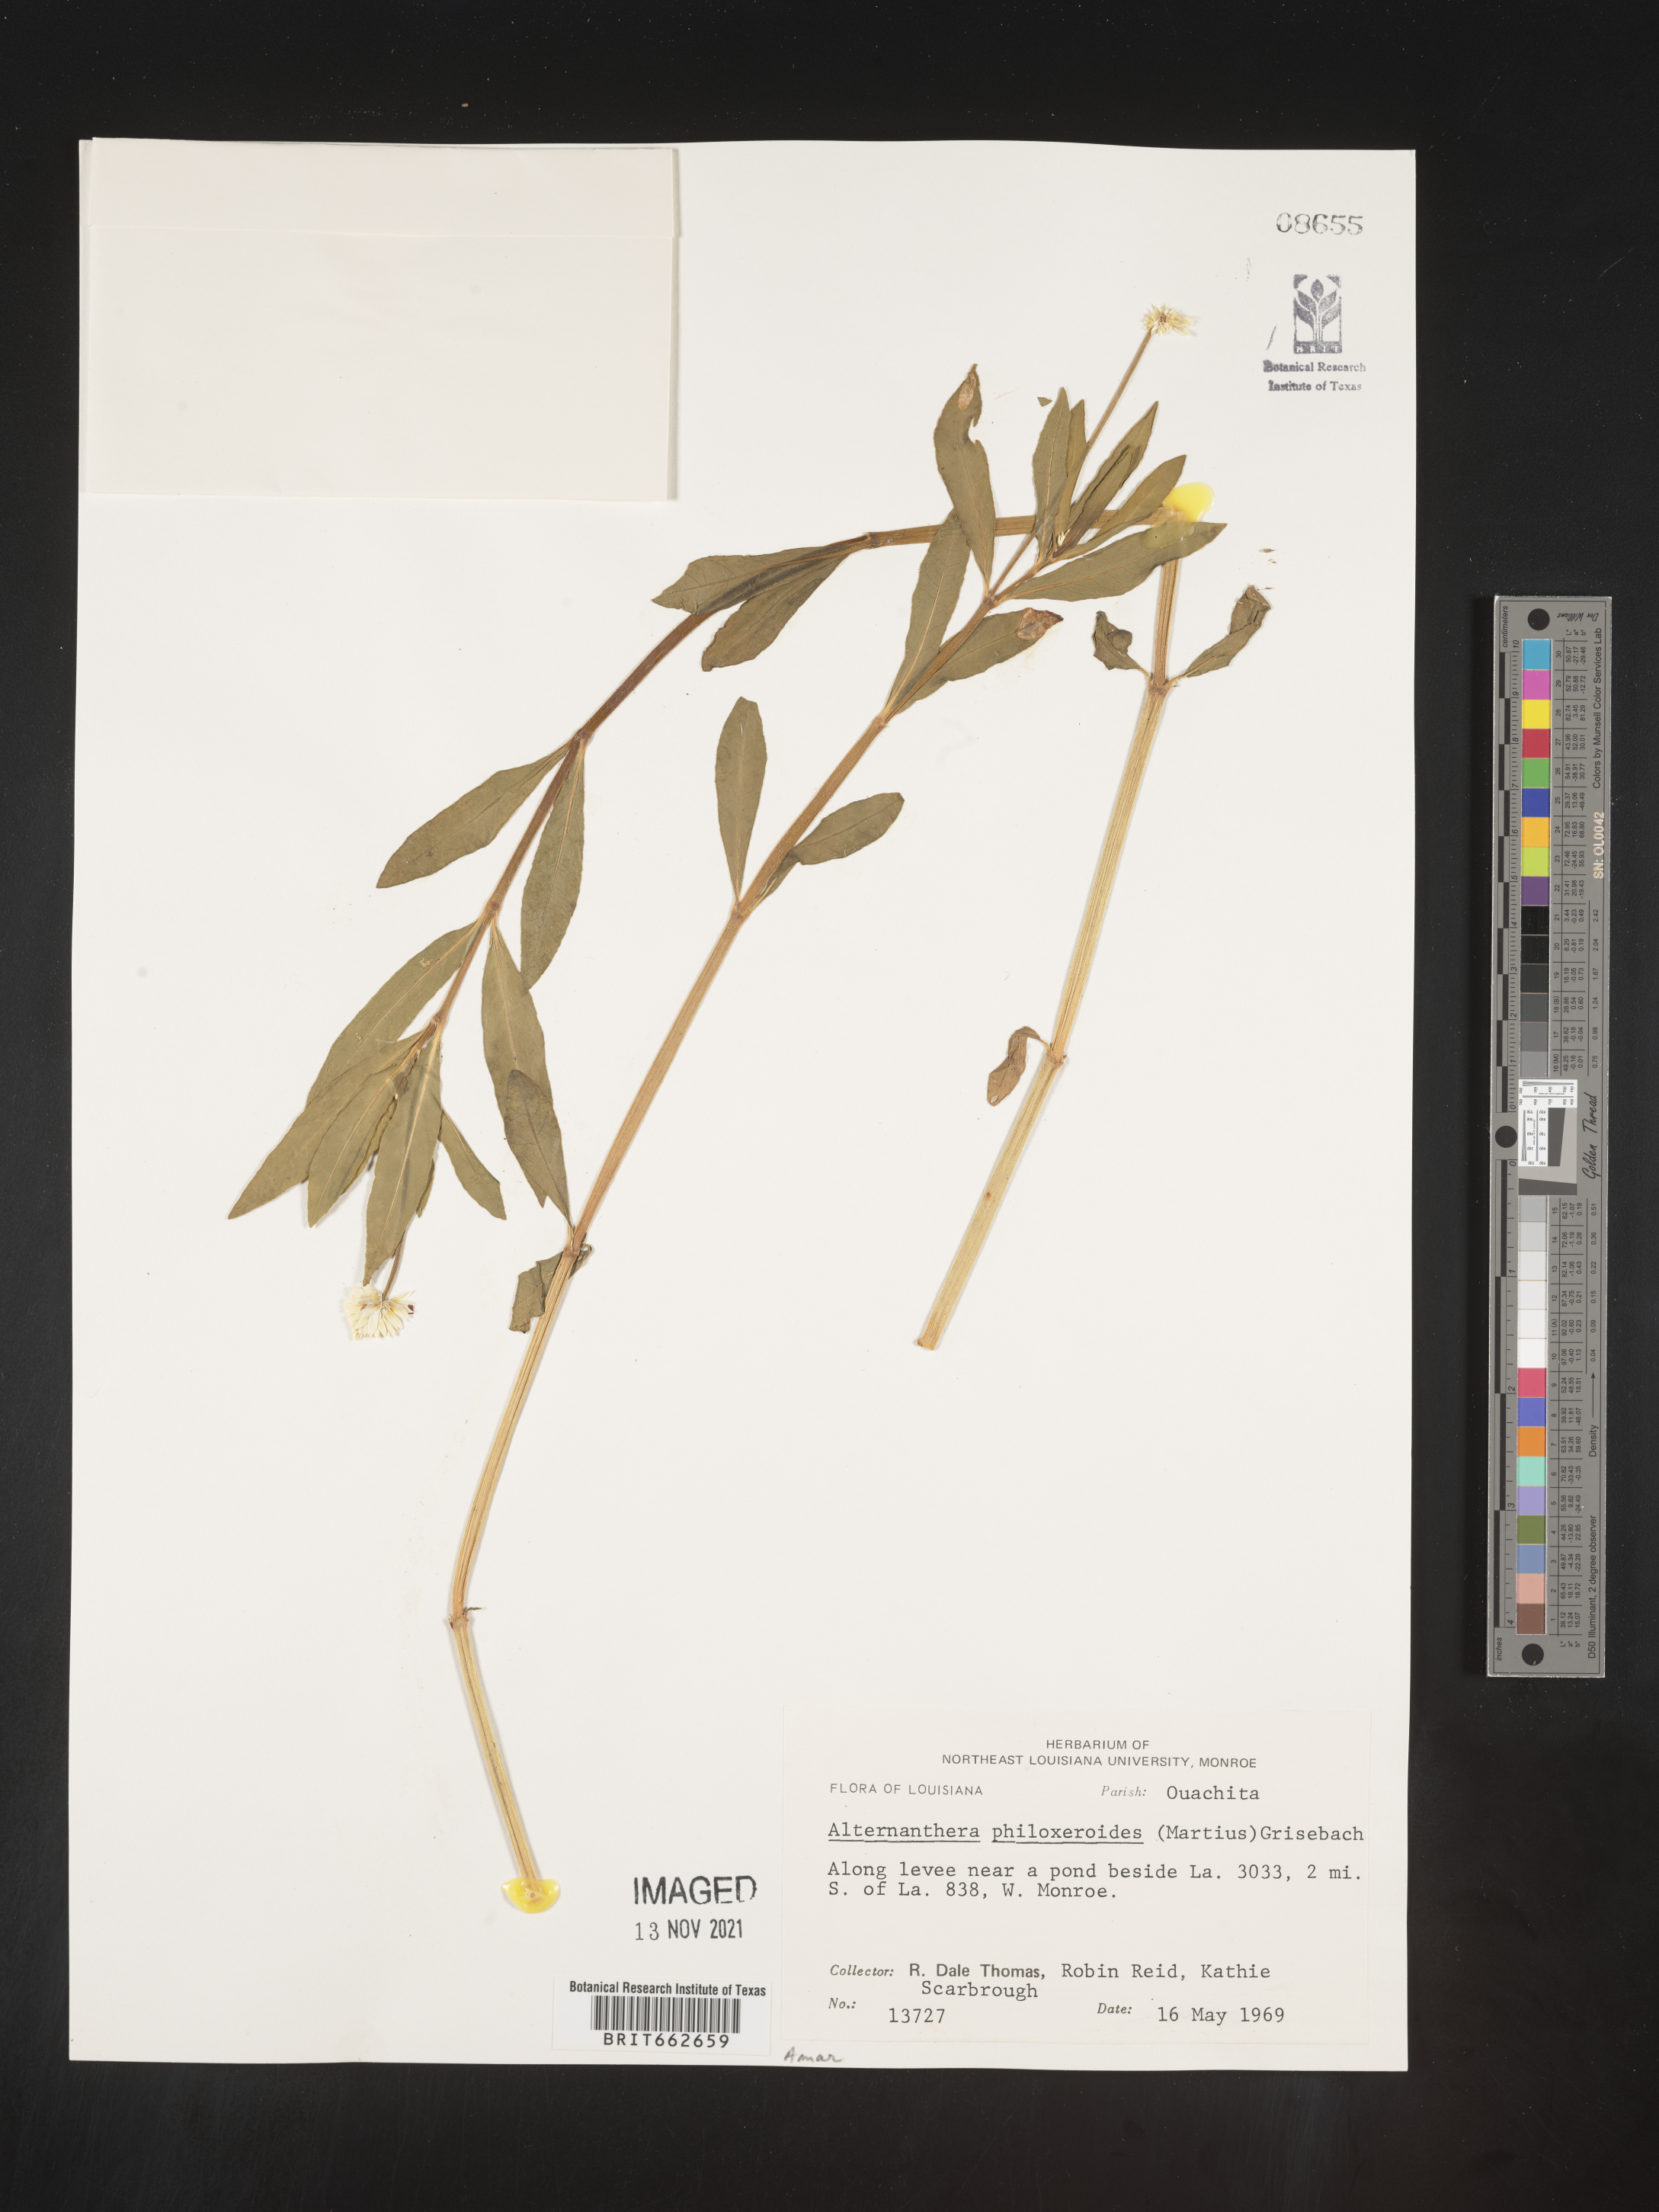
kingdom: Plantae
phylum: Tracheophyta
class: Magnoliopsida
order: Caryophyllales
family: Amaranthaceae
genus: Alternanthera
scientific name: Alternanthera philoxeroides
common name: Alligatorweed
